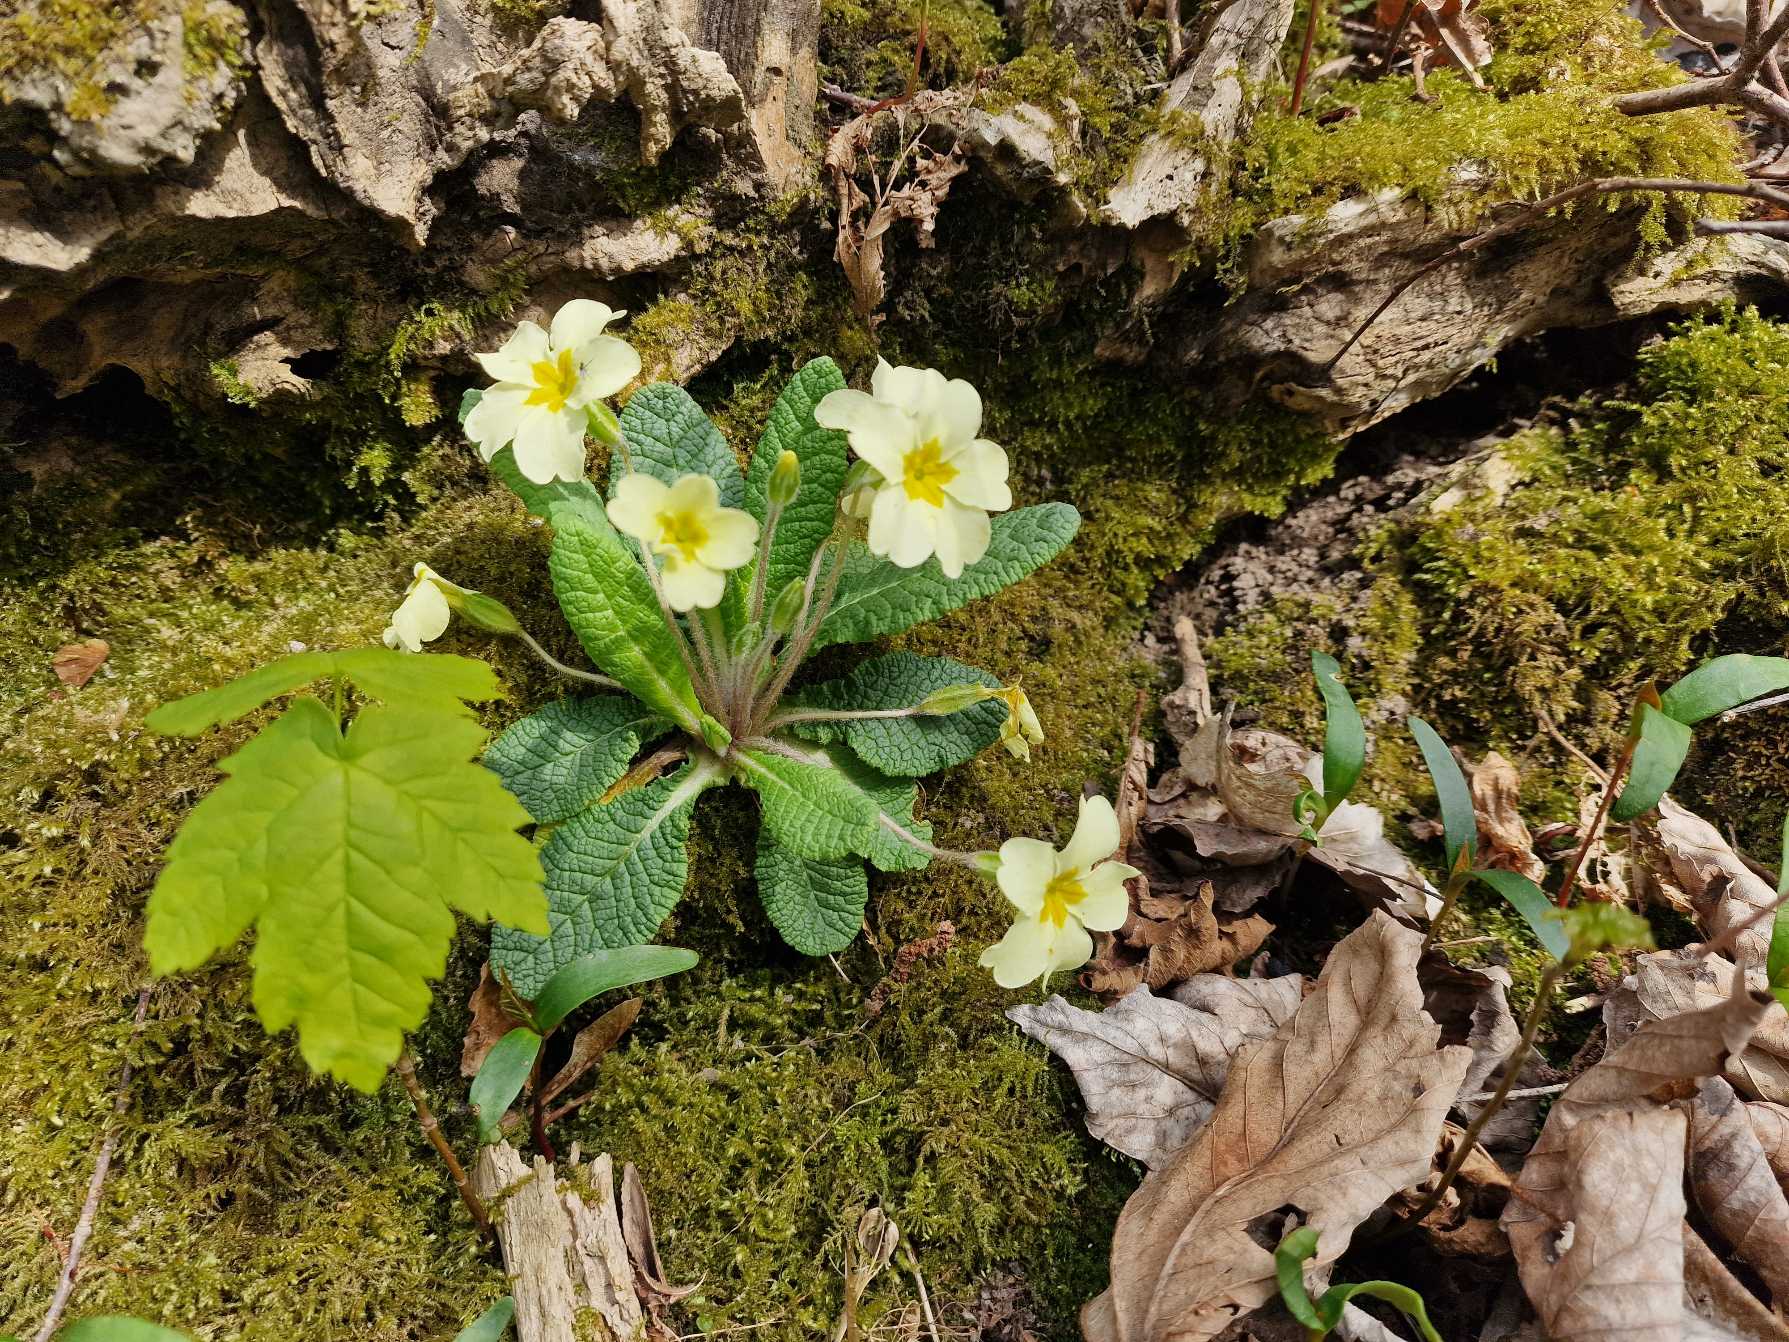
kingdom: Plantae
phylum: Tracheophyta
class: Magnoliopsida
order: Ericales
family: Primulaceae
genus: Primula
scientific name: Primula vulgaris
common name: Storblomstret kodriver
